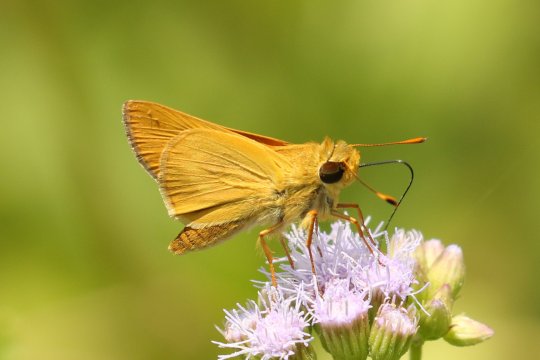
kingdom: Animalia
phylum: Arthropoda
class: Insecta
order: Lepidoptera
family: Hesperiidae
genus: Mellana
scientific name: Mellana eulogius
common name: Common Mellana
